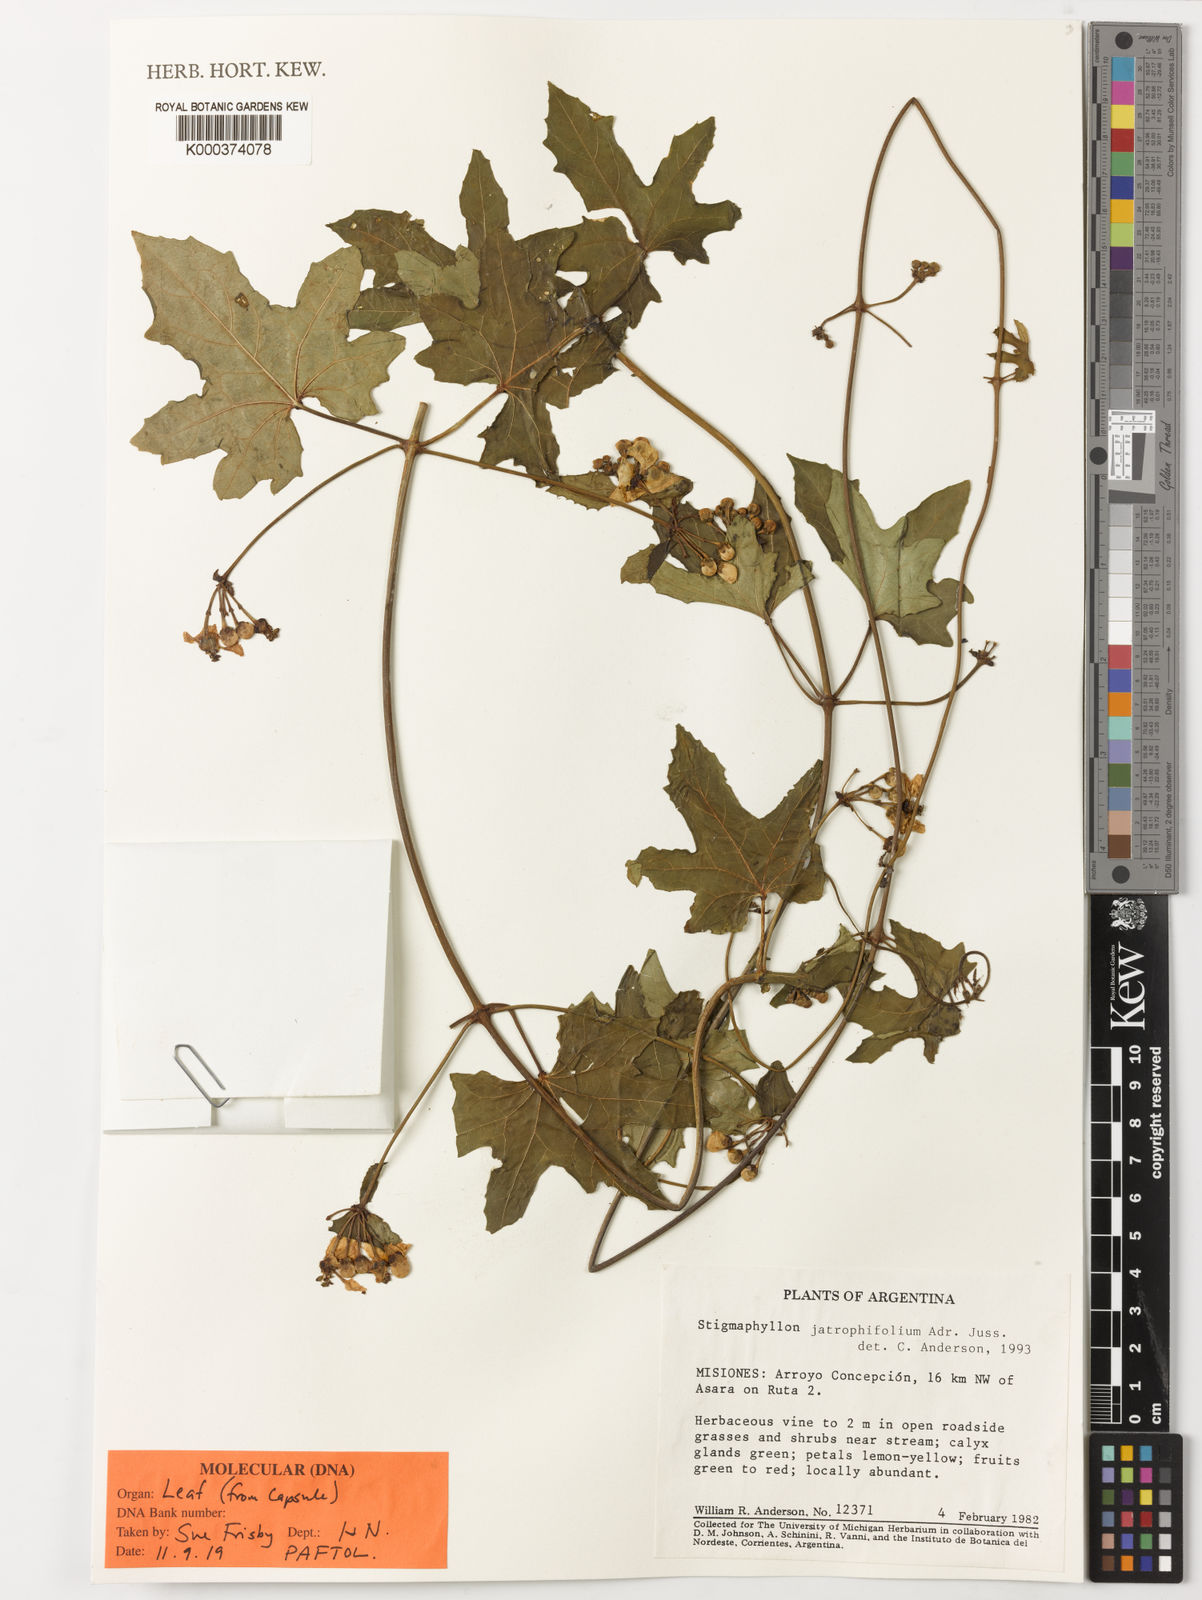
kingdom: Plantae
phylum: Tracheophyta
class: Magnoliopsida
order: Malpighiales
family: Malpighiaceae
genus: Stigmaphyllon
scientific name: Stigmaphyllon jatrophifolium
